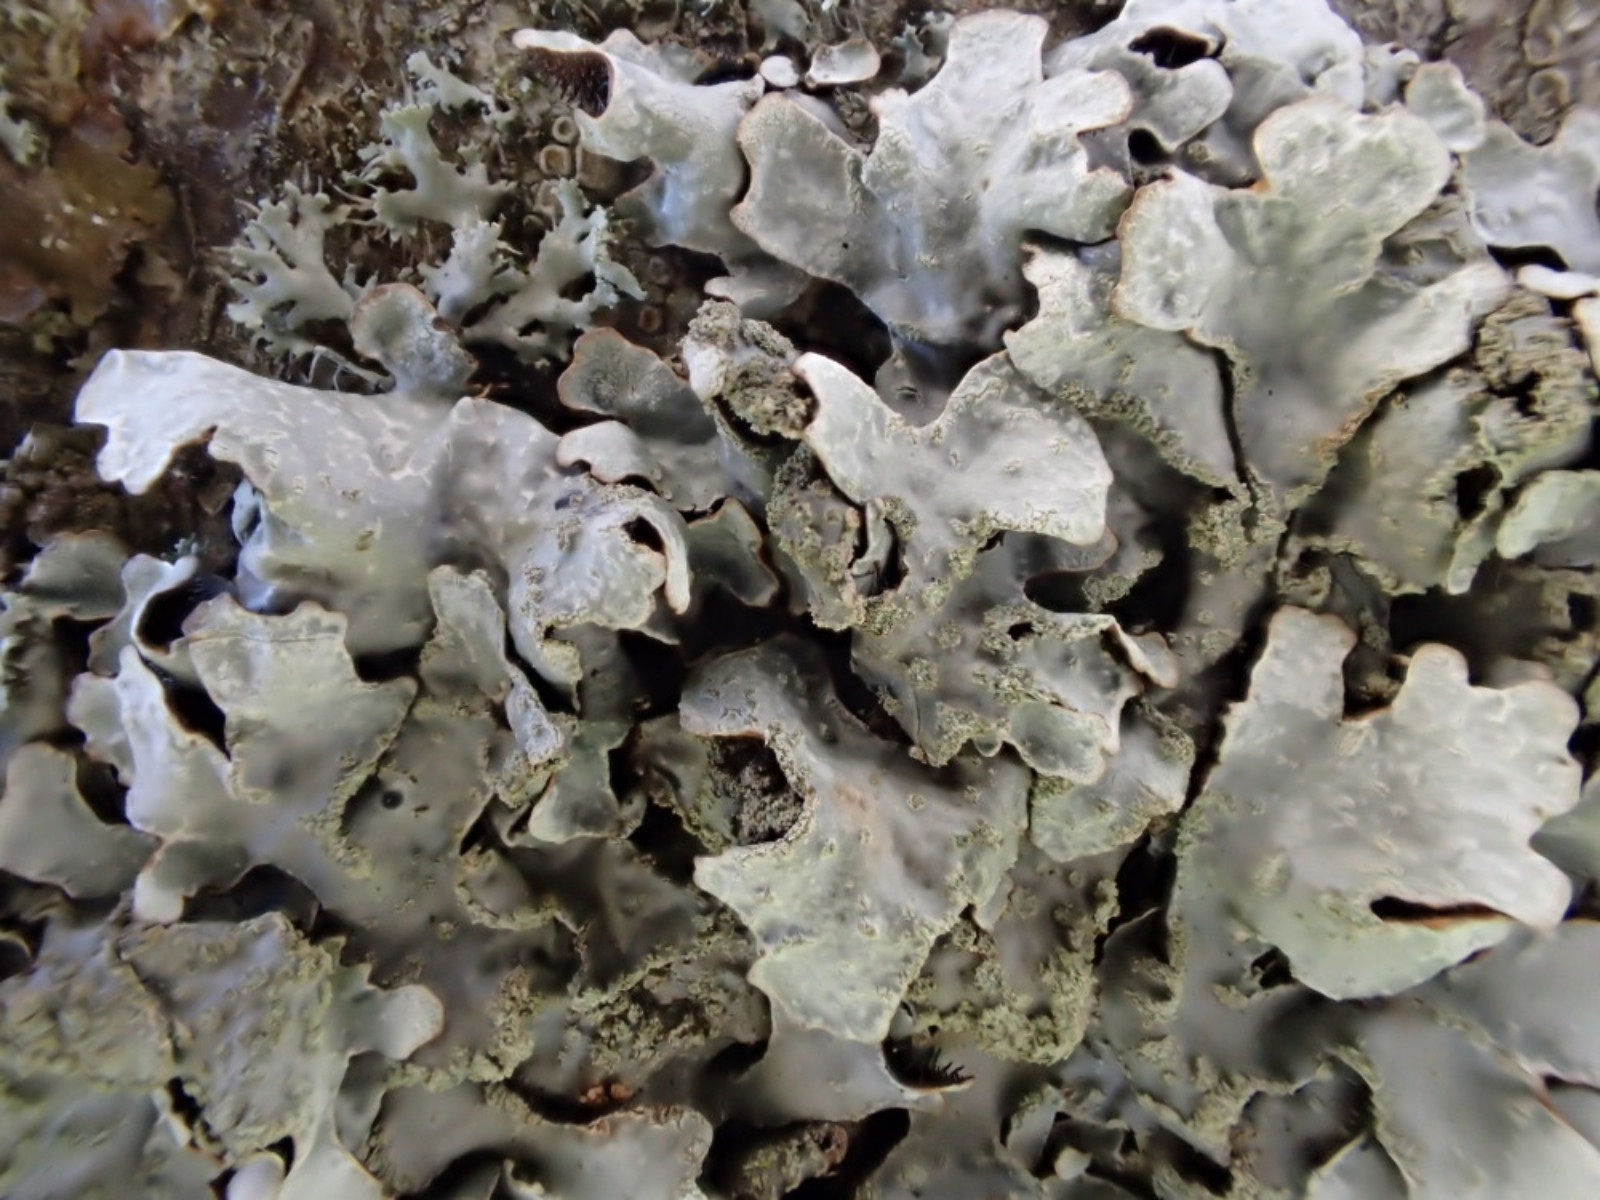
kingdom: Fungi
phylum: Ascomycota
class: Lecanoromycetes
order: Lecanorales
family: Parmeliaceae
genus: Parmelia
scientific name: Parmelia sulcata
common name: rynket skållav
